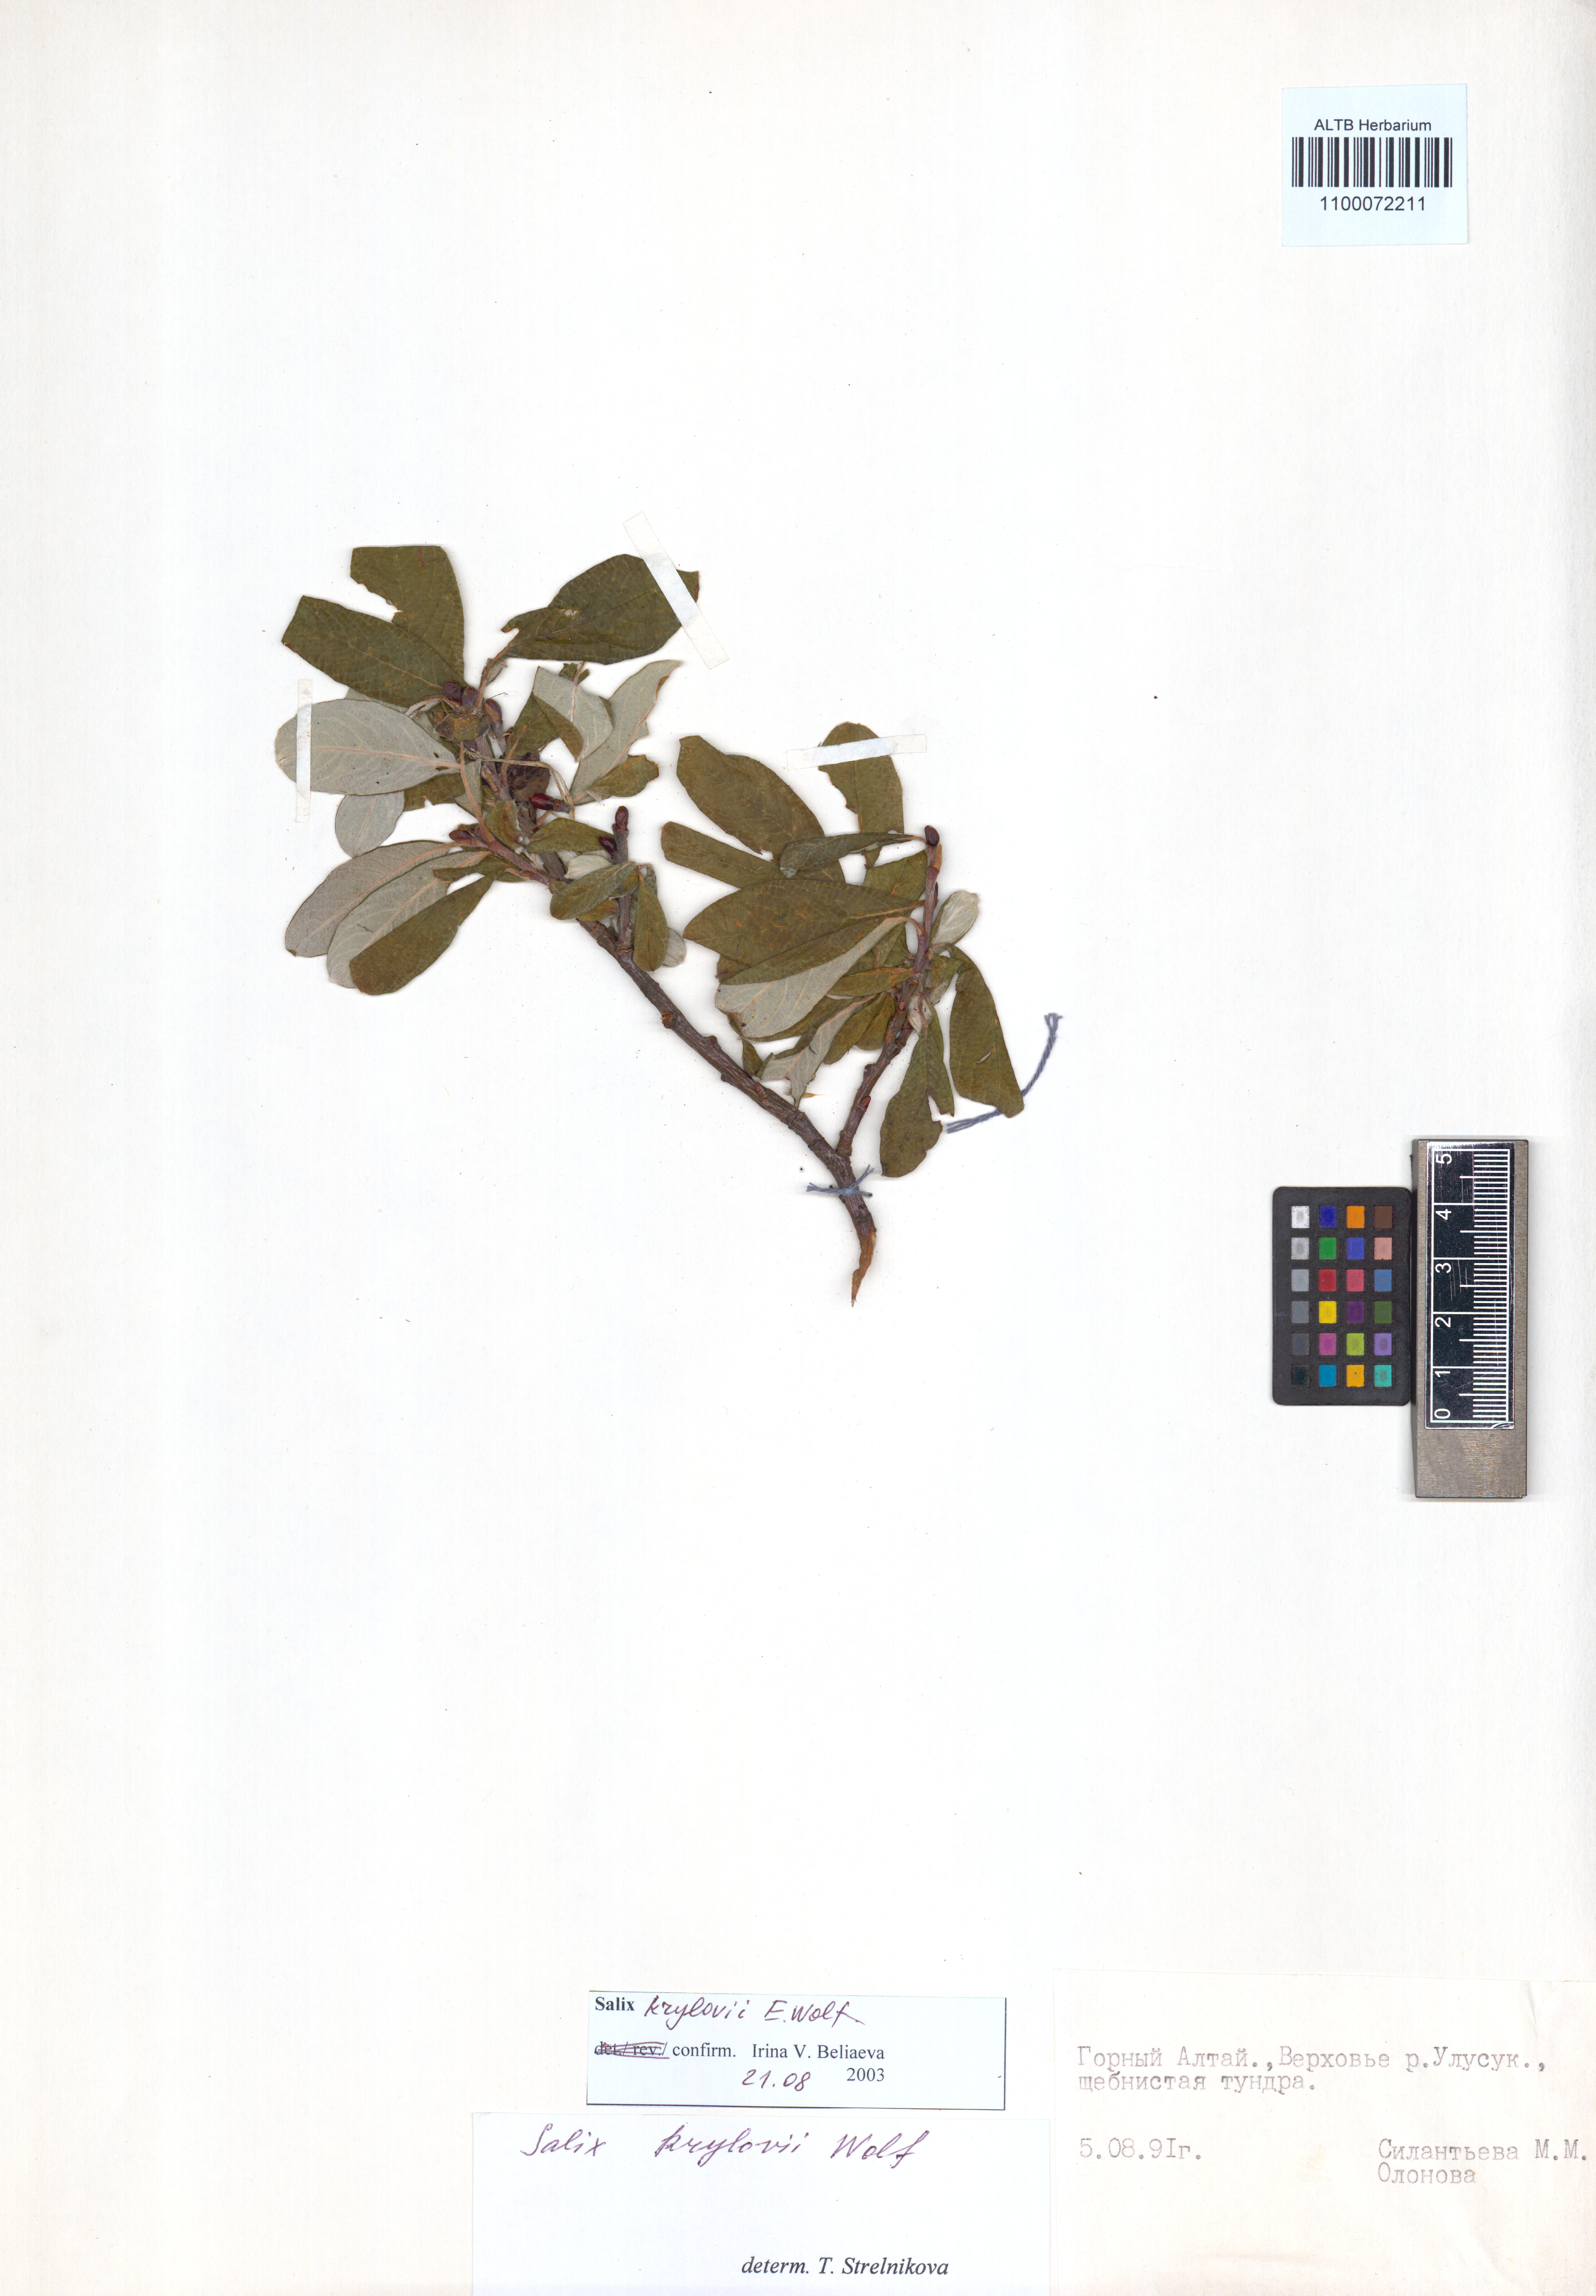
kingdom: Plantae
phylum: Tracheophyta
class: Magnoliopsida
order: Malpighiales
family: Salicaceae
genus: Salix
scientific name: Salix krylovii
